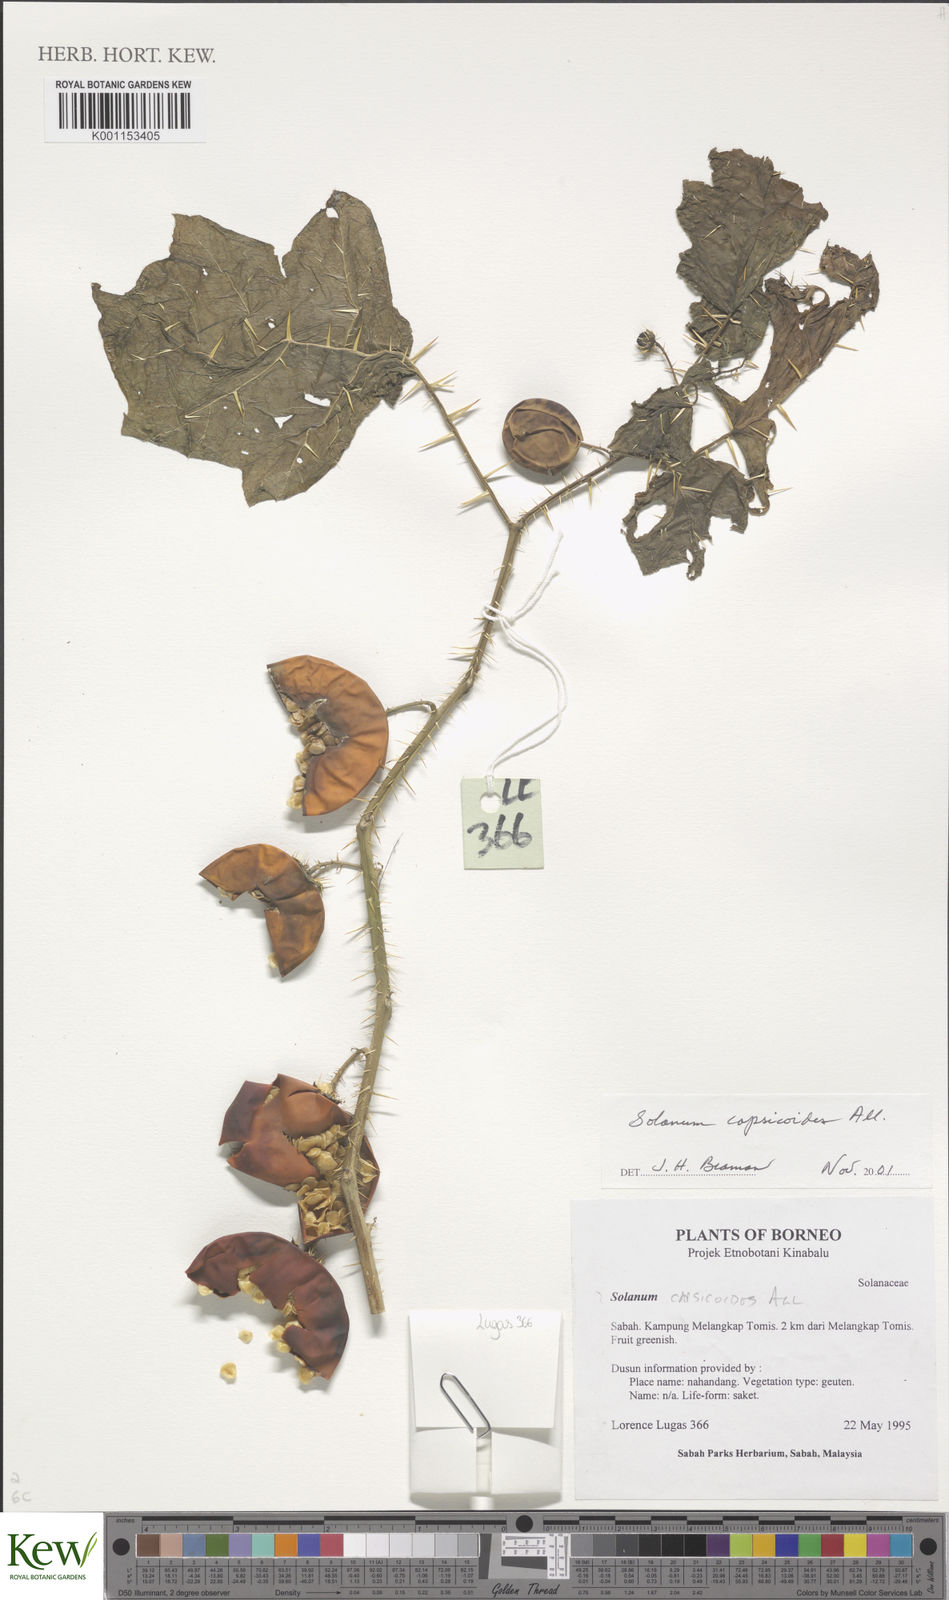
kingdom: Plantae
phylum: Tracheophyta
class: Magnoliopsida
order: Solanales
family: Solanaceae
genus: Solanum
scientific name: Solanum capsicoides
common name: Cockroach berry
